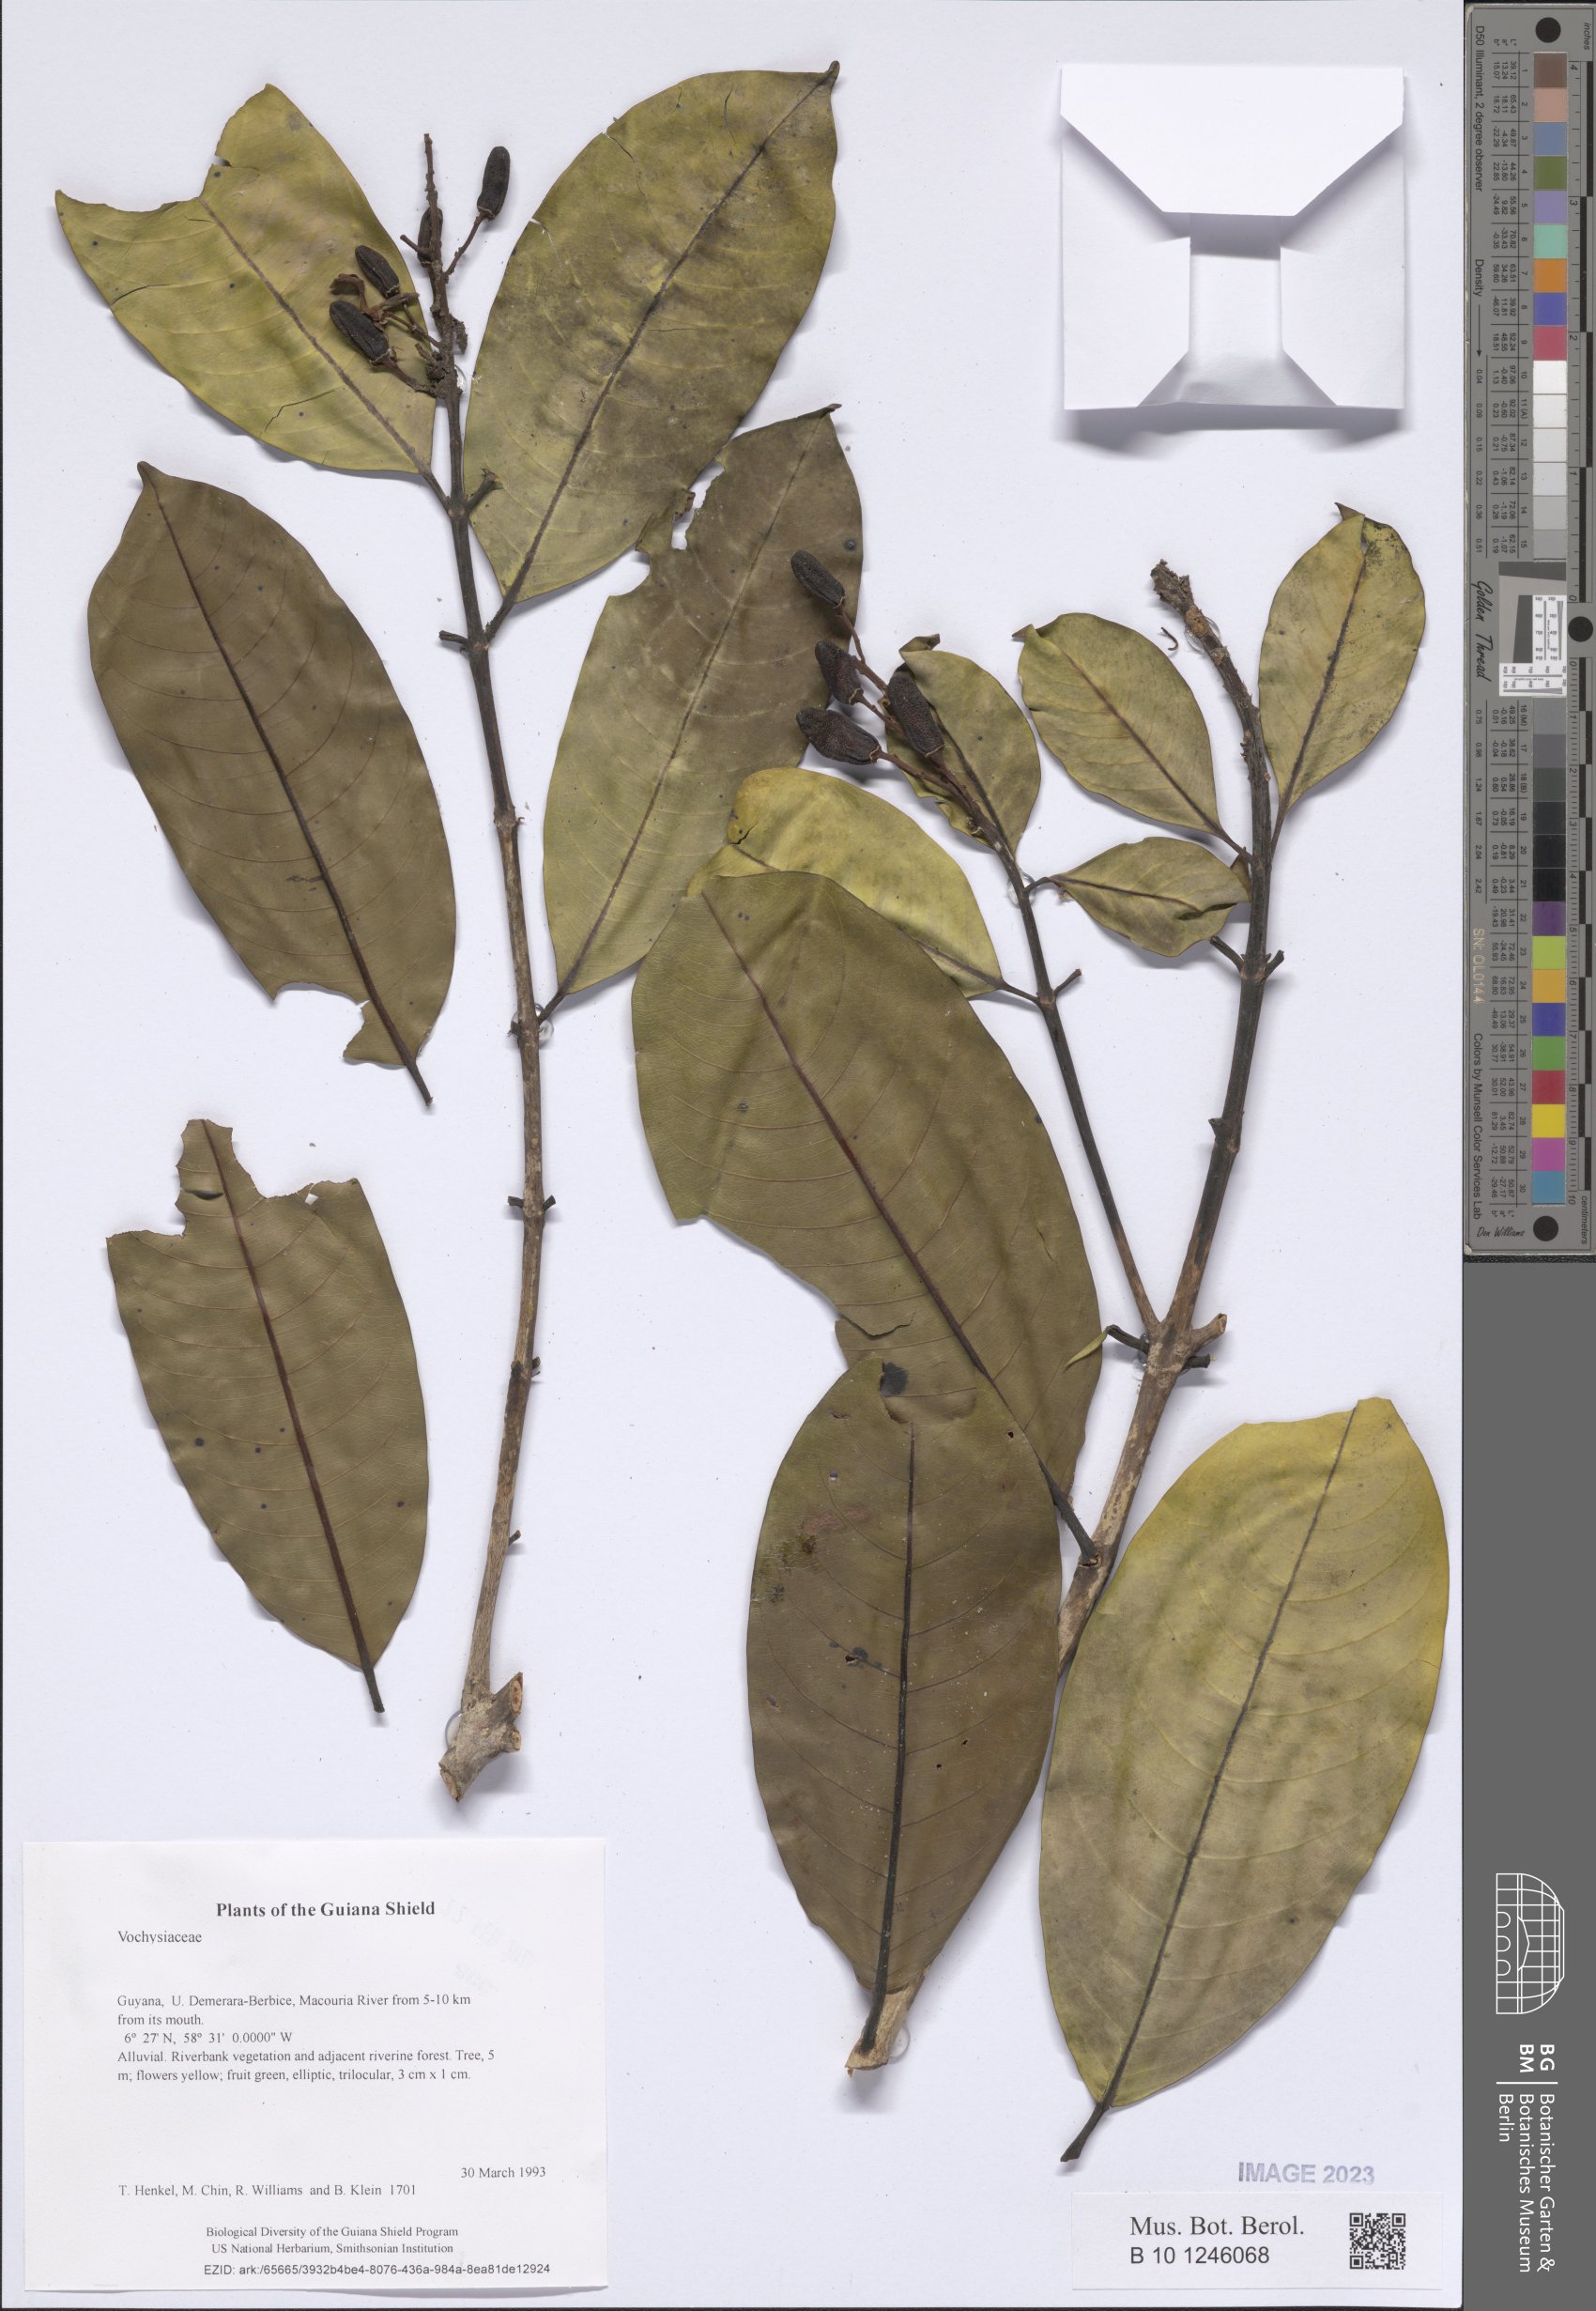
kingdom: Plantae
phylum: Tracheophyta
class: Magnoliopsida
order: Myrtales
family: Vochysiaceae
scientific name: Vochysiaceae
